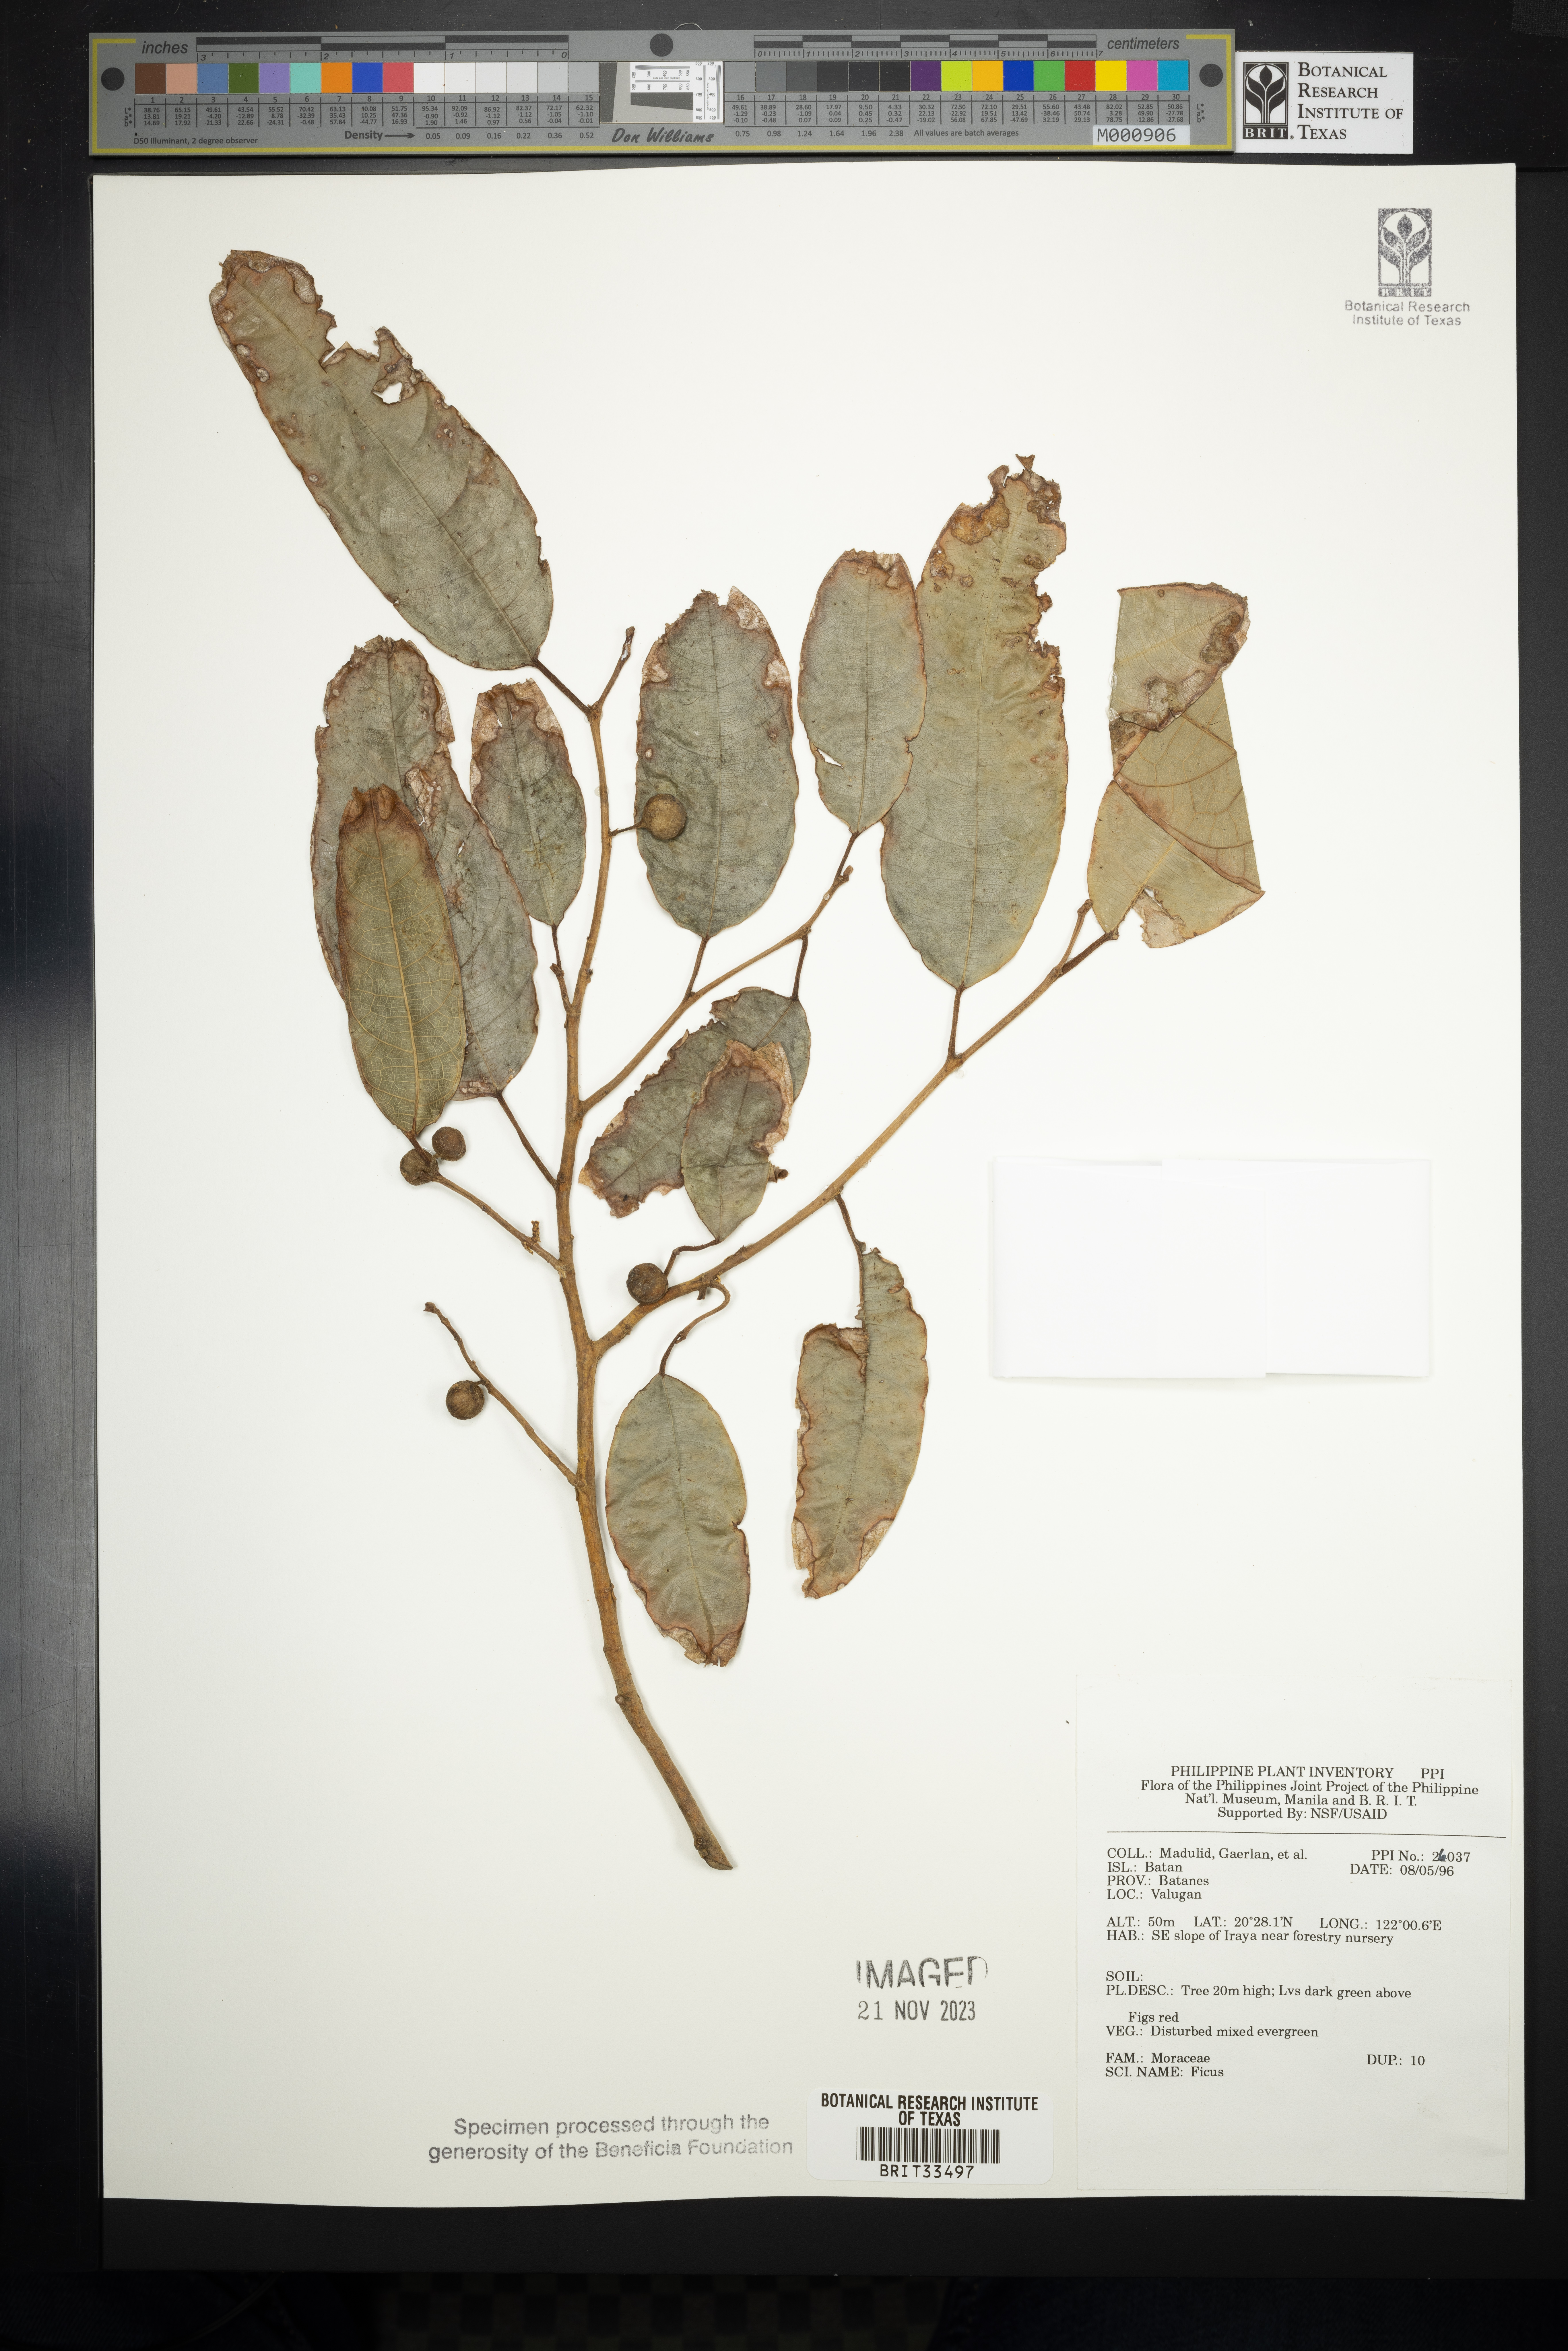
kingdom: Plantae
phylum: Tracheophyta
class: Magnoliopsida
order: Rosales
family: Moraceae
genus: Ficus
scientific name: Ficus
